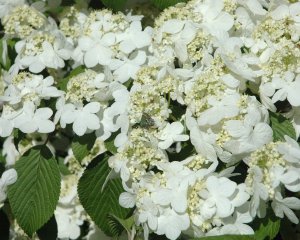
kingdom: Animalia
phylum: Arthropoda
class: Insecta
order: Lepidoptera
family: Lycaenidae
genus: Mitoura
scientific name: Mitoura gryneus
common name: Juniper Hairstreak
